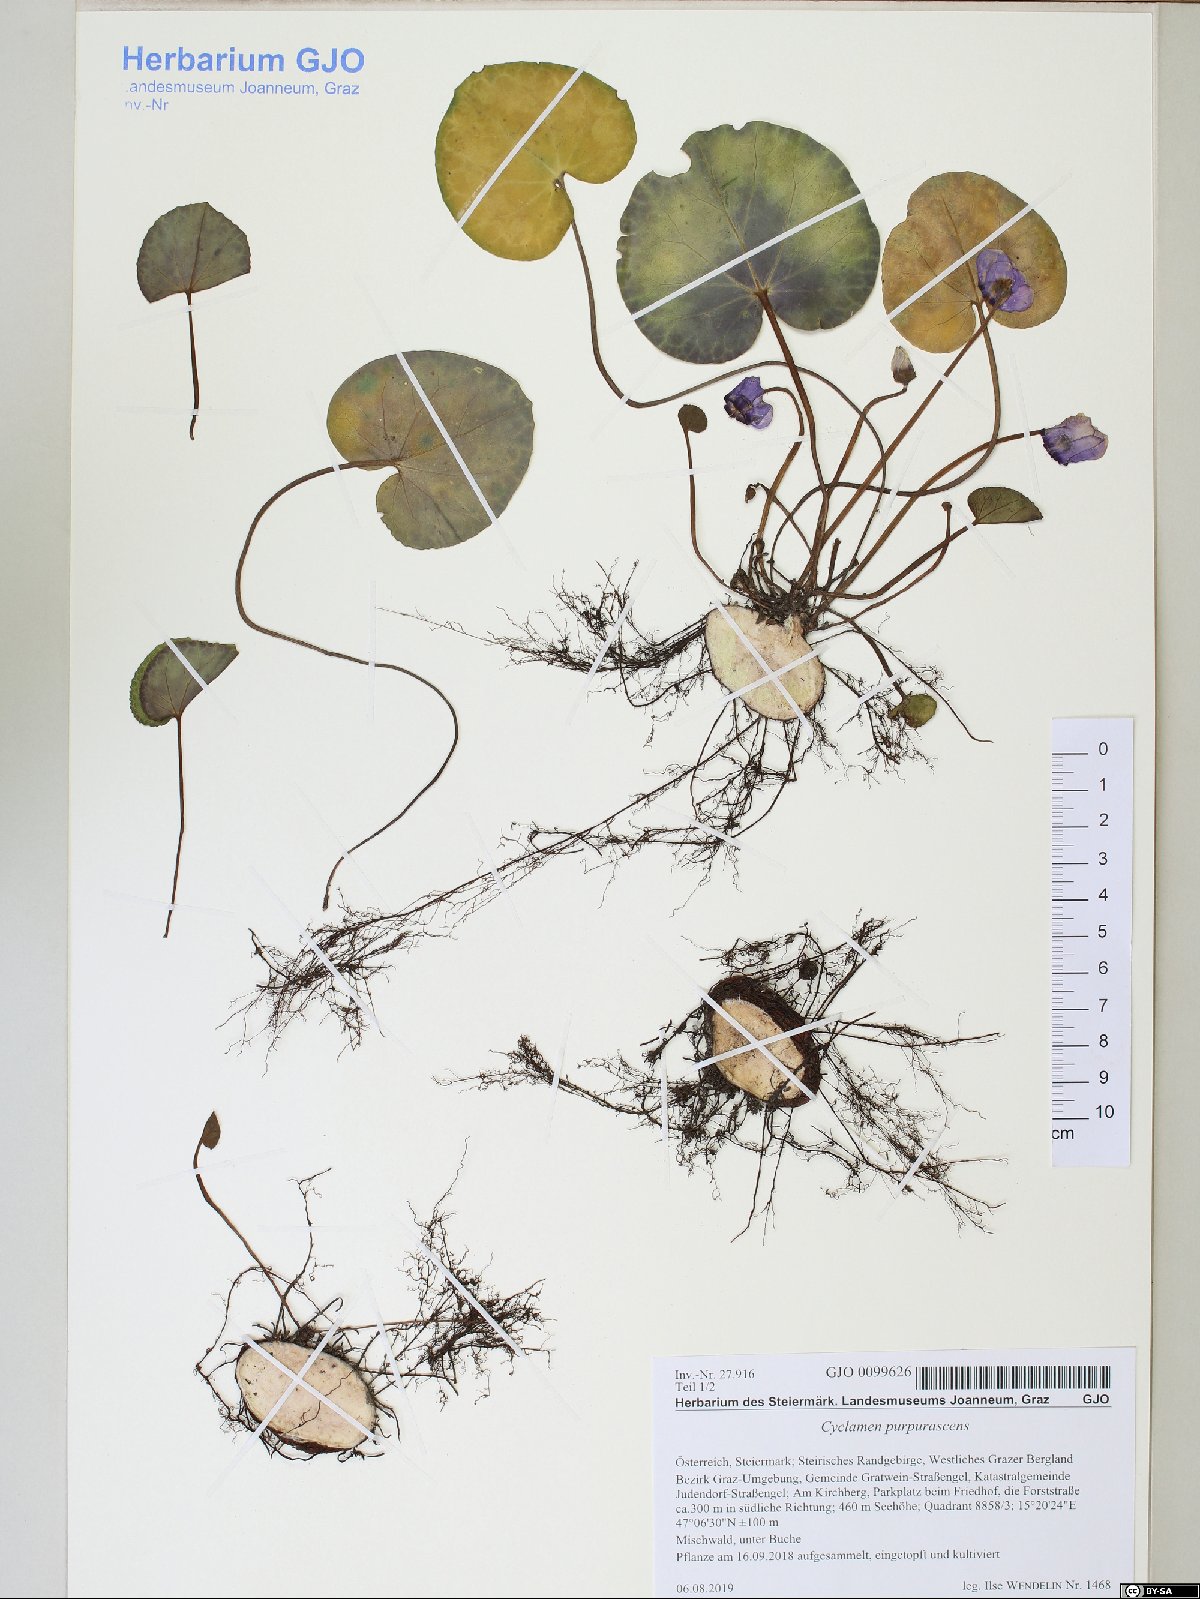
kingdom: Plantae
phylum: Tracheophyta
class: Magnoliopsida
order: Ericales
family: Primulaceae
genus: Cyclamen
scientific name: Cyclamen purpurascens
